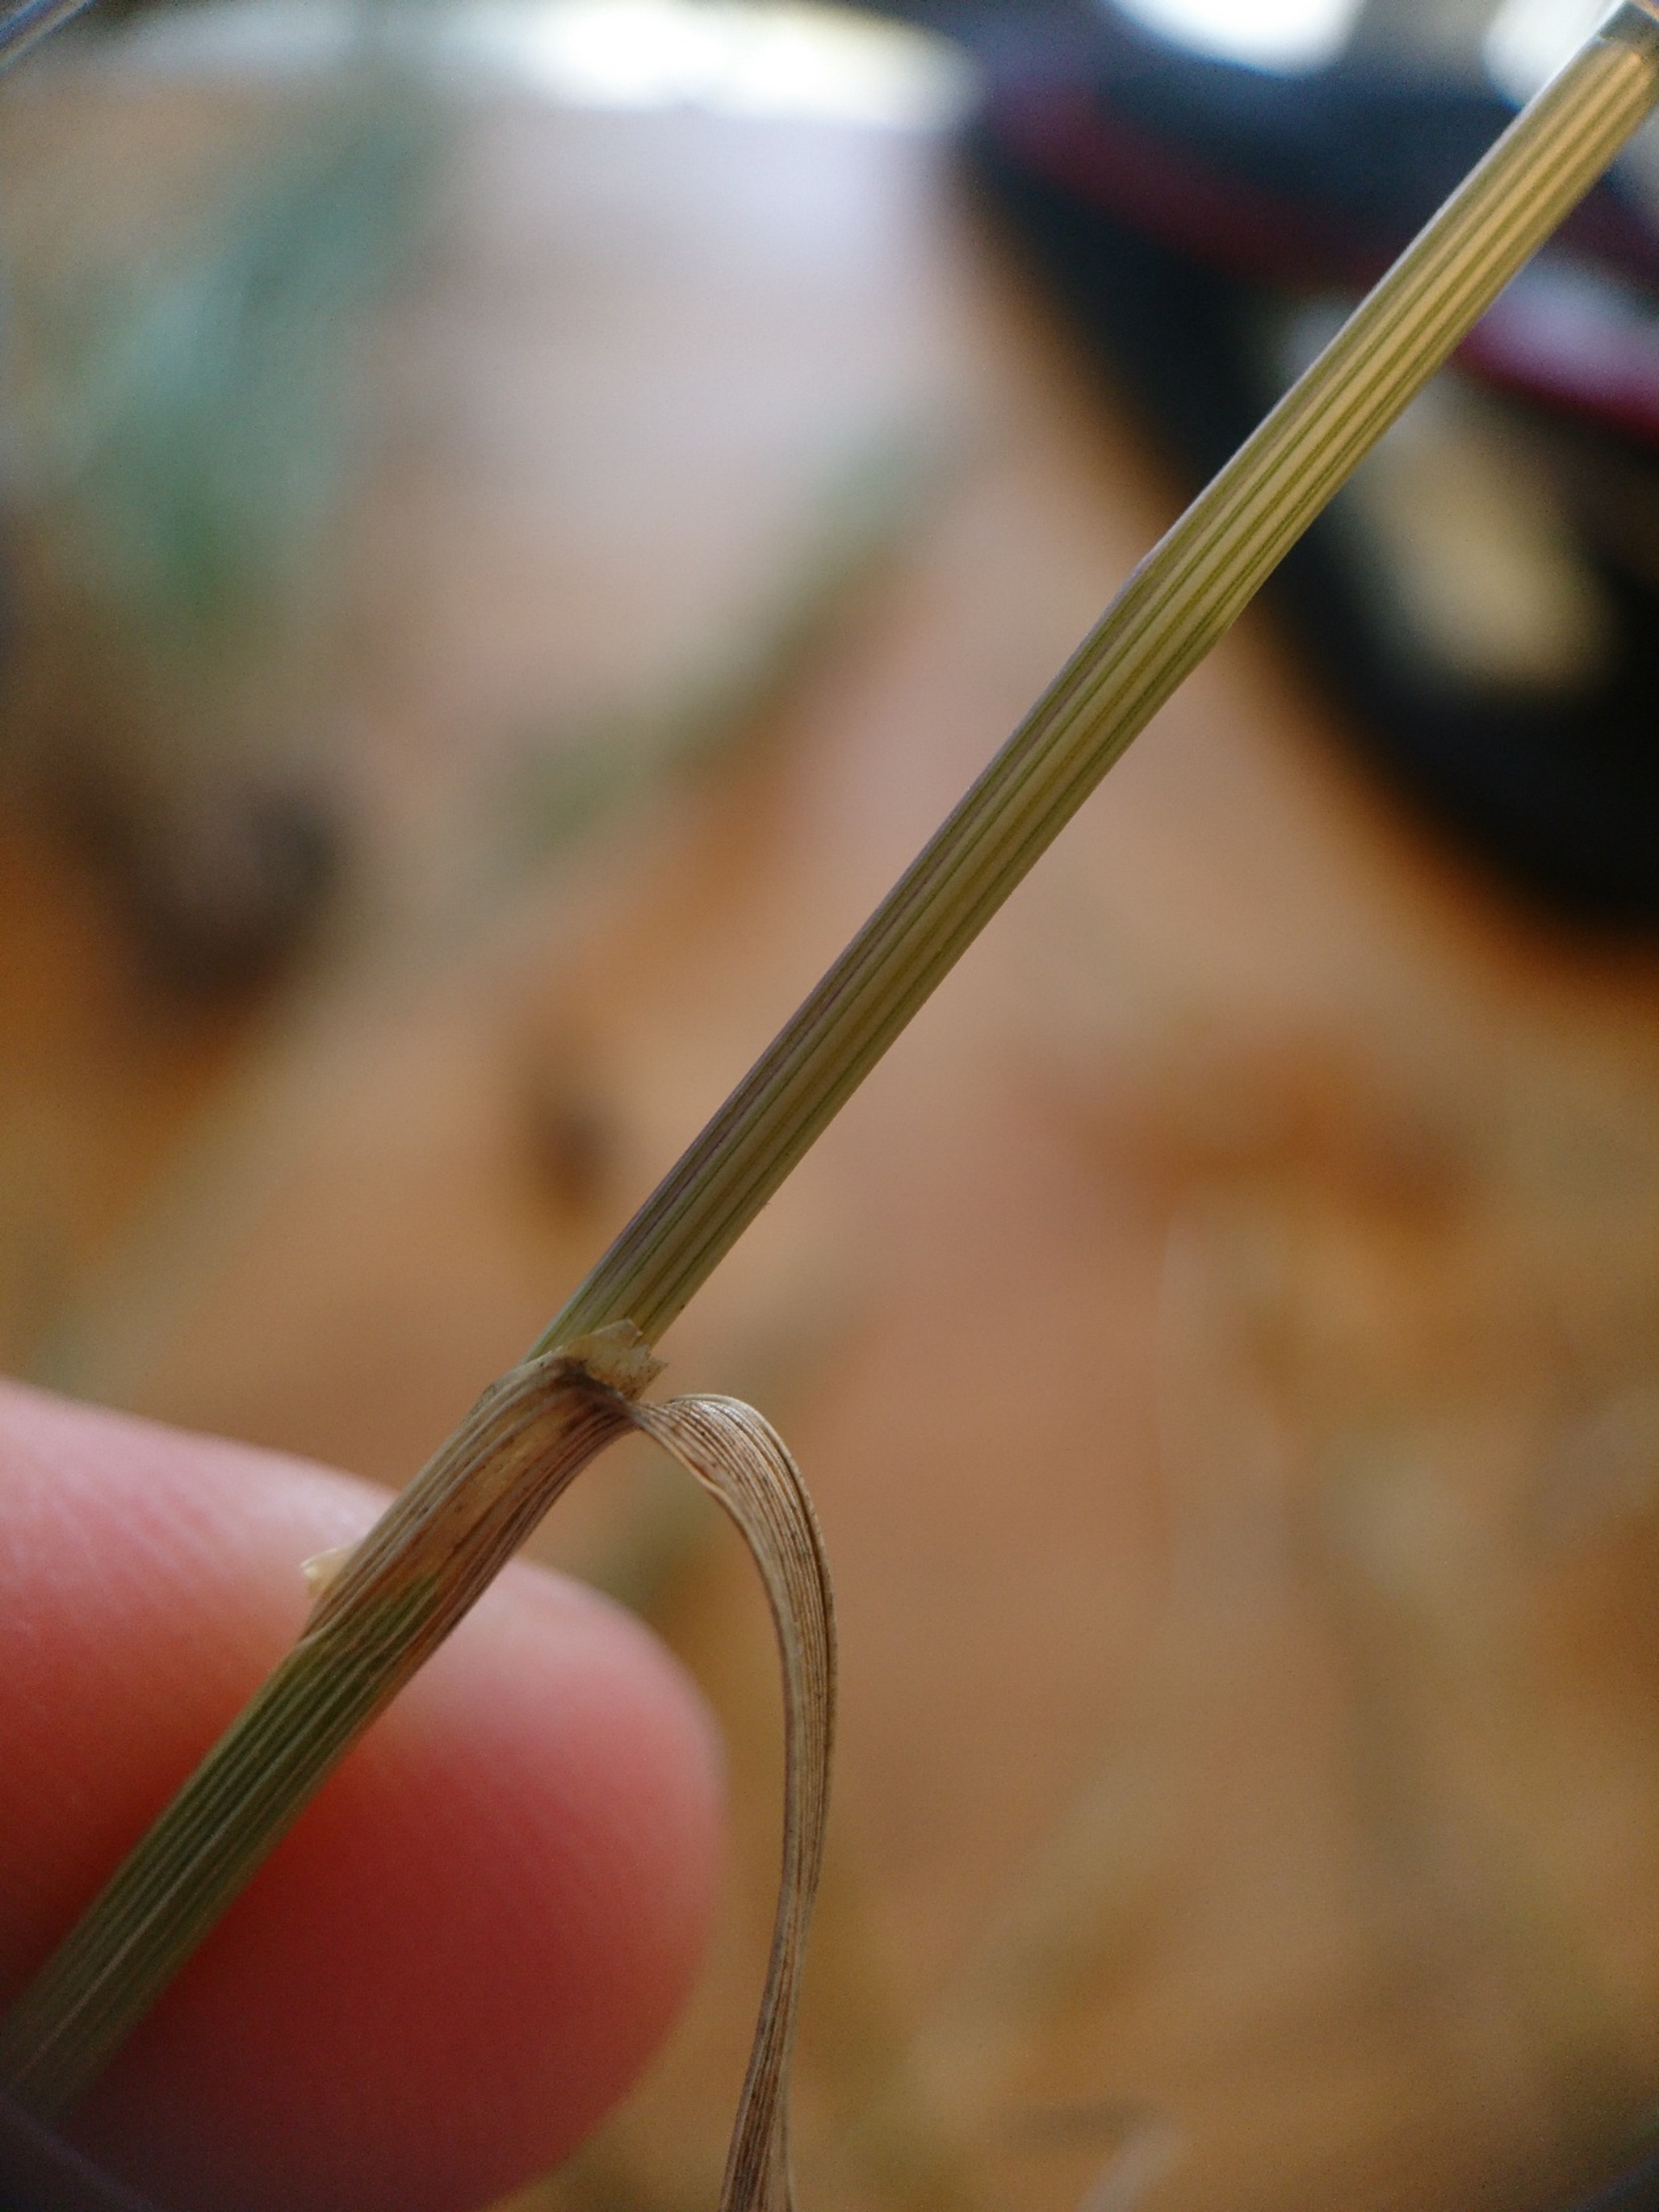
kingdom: Plantae
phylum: Tracheophyta
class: Liliopsida
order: Poales
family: Poaceae
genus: Cynosurus
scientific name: Cynosurus cristatus
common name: Kamgræs
